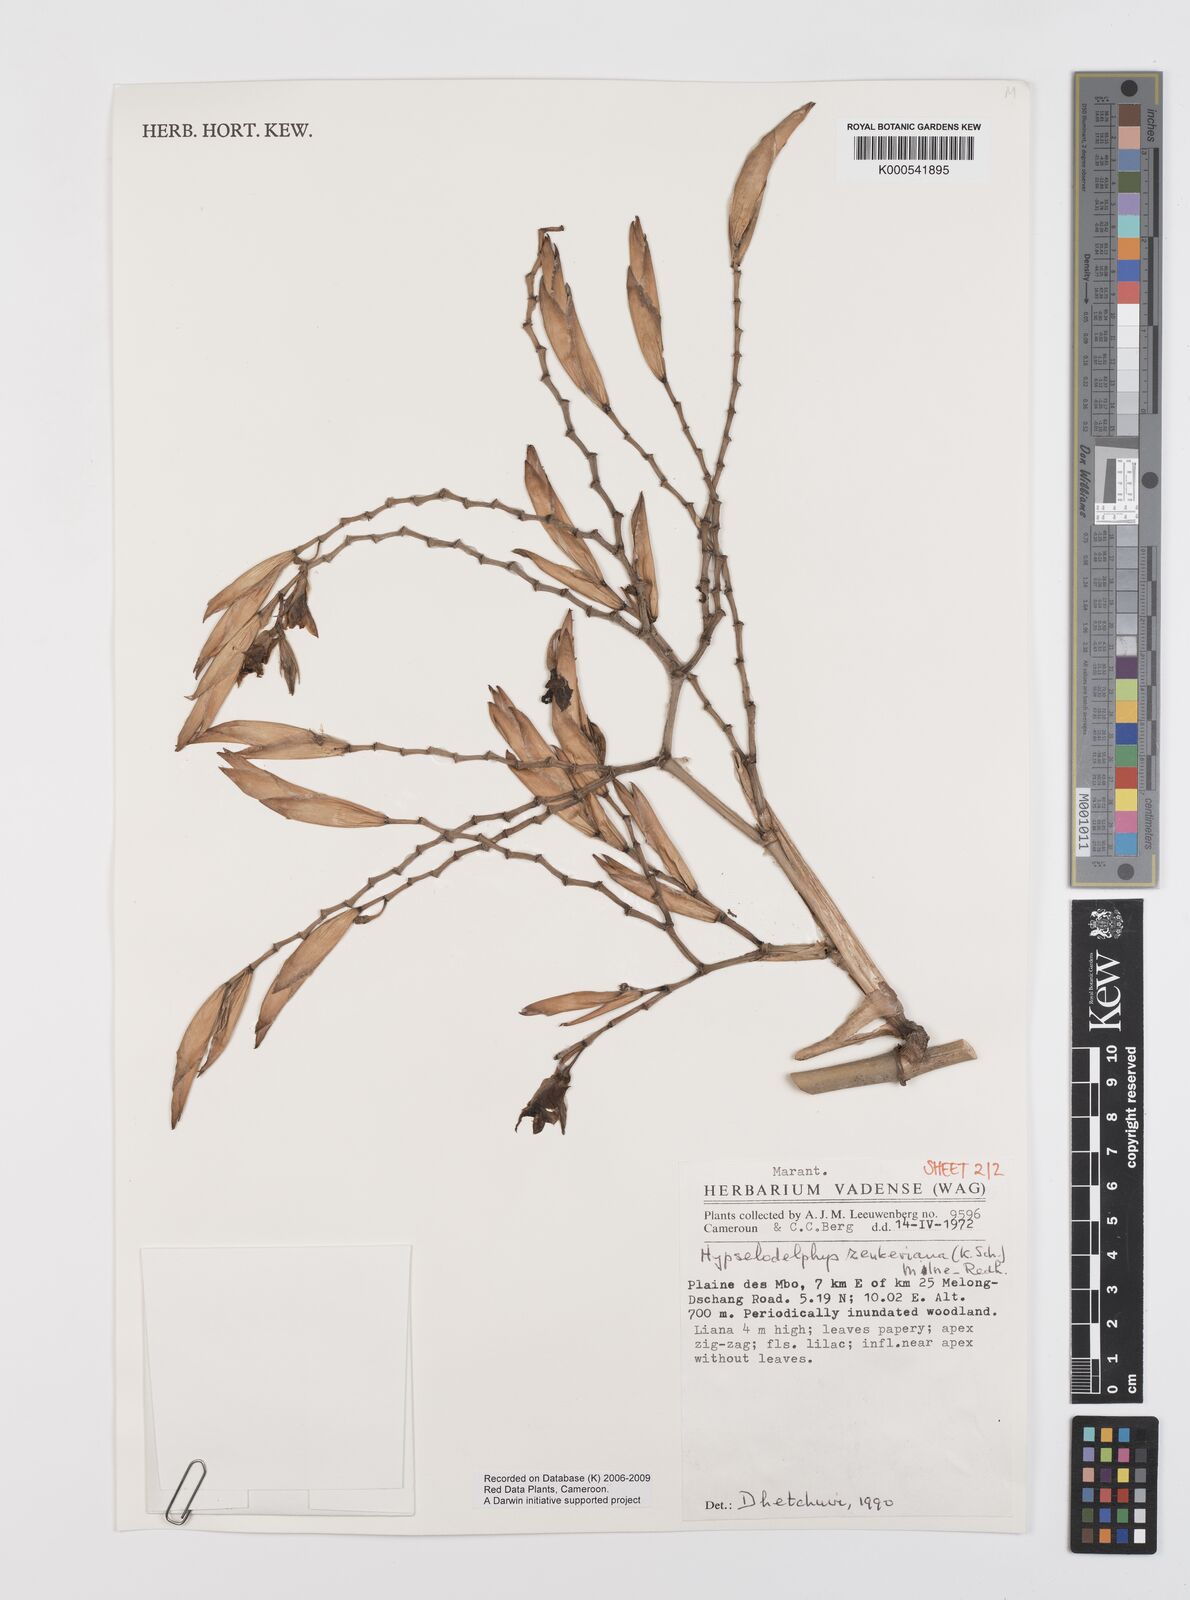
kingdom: Plantae
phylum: Tracheophyta
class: Liliopsida
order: Zingiberales
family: Marantaceae
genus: Hypselodelphys
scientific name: Hypselodelphys zenkeriana
